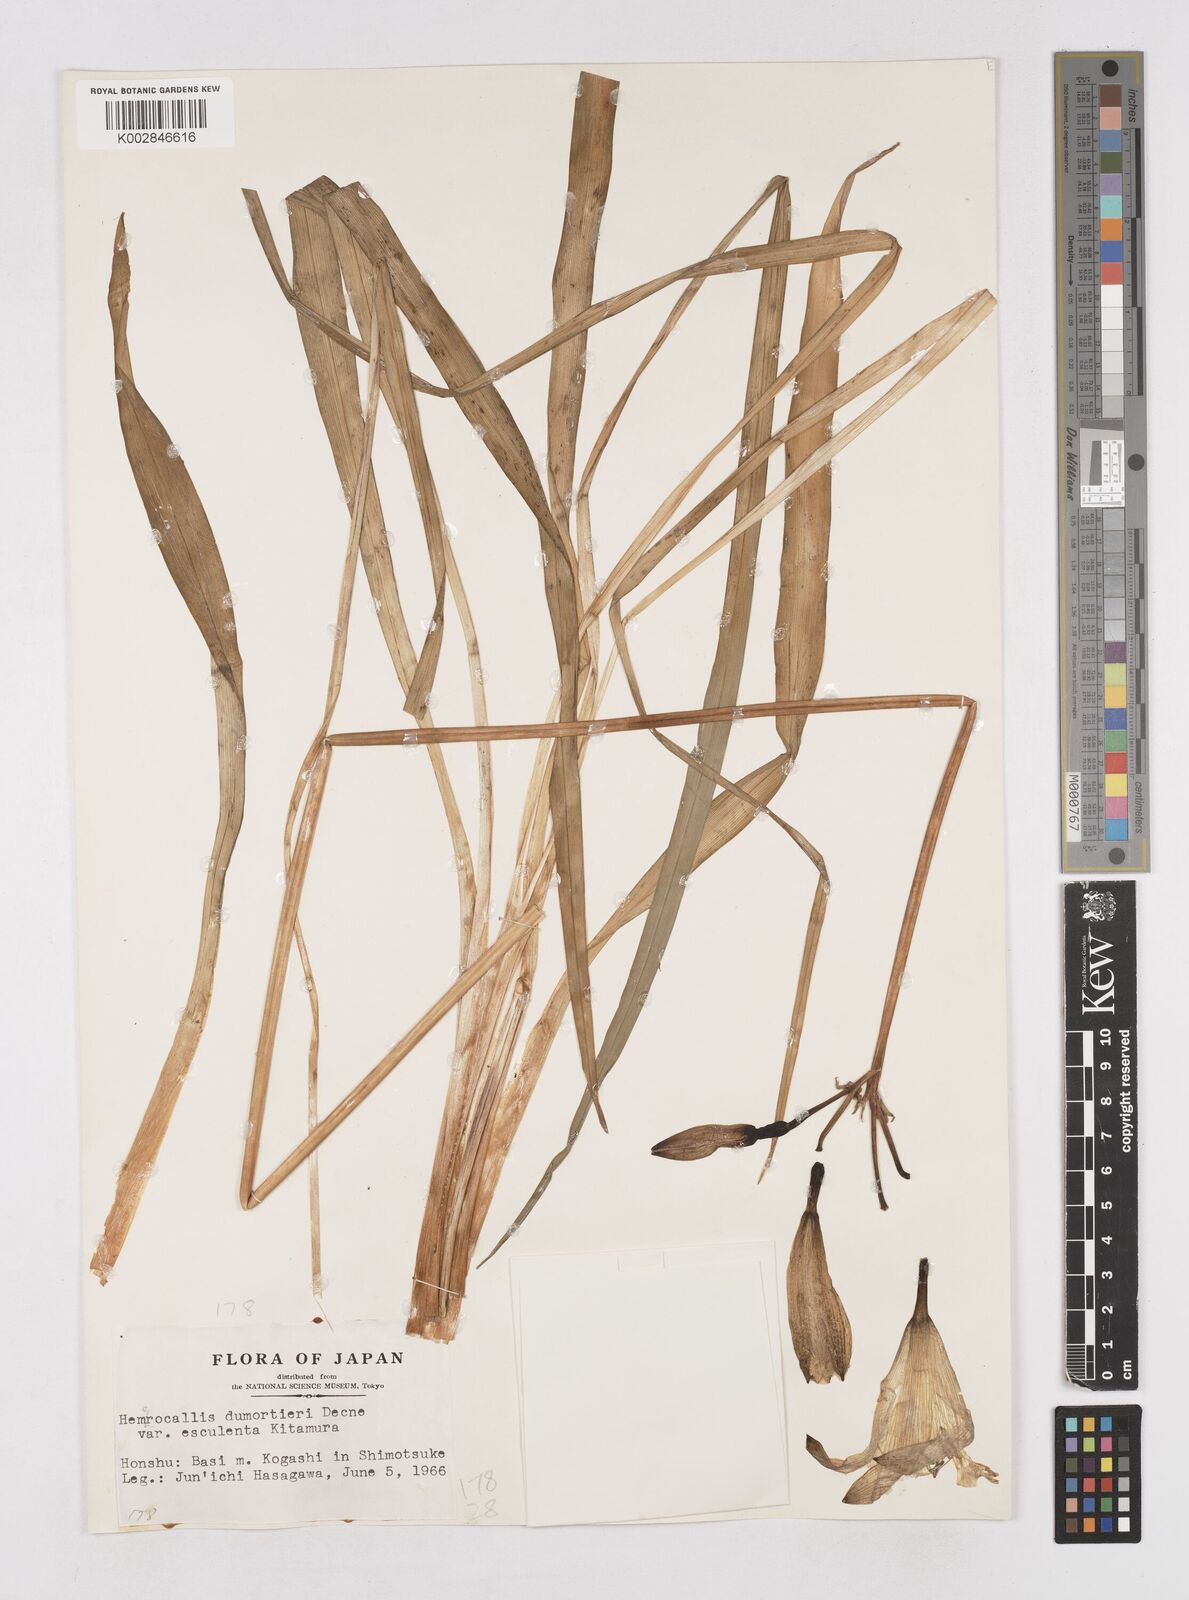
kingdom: Plantae
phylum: Tracheophyta
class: Liliopsida
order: Asparagales
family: Asphodelaceae
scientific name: Asphodelaceae
